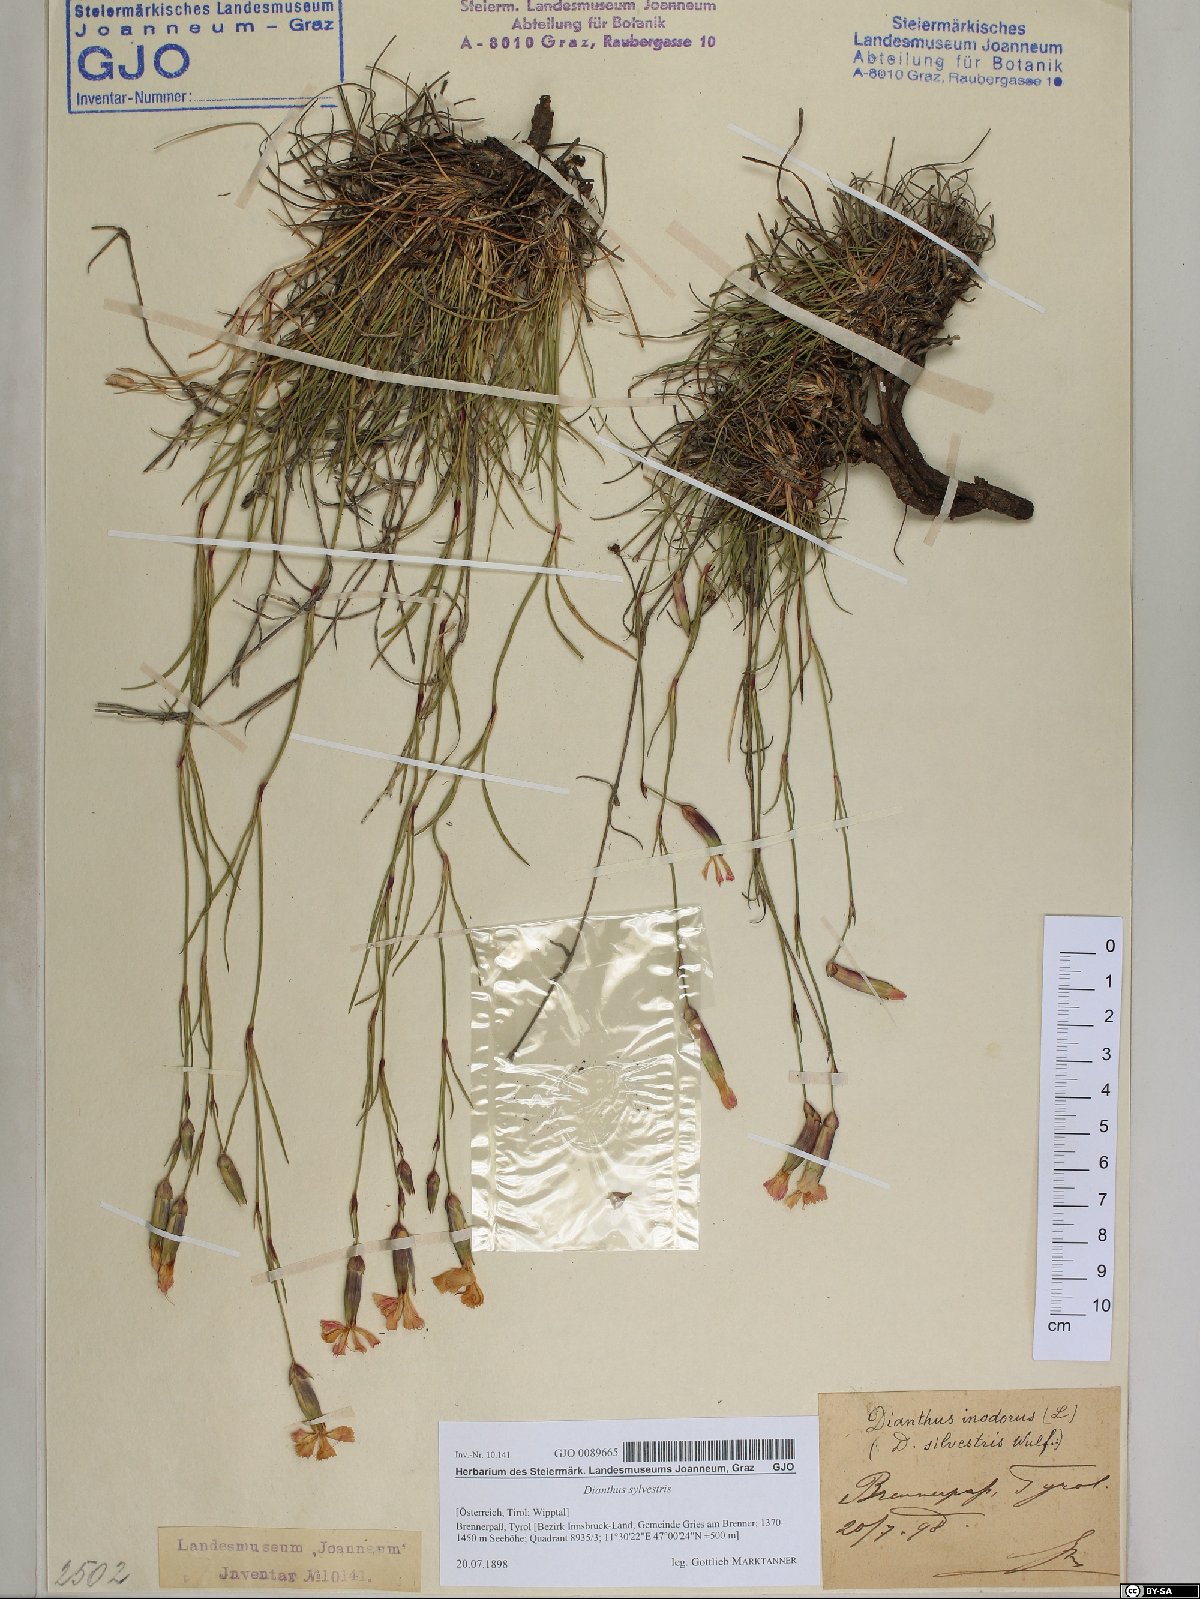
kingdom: Plantae
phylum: Tracheophyta
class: Magnoliopsida
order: Caryophyllales
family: Caryophyllaceae
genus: Dianthus
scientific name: Dianthus sylvestris
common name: Wood pink
